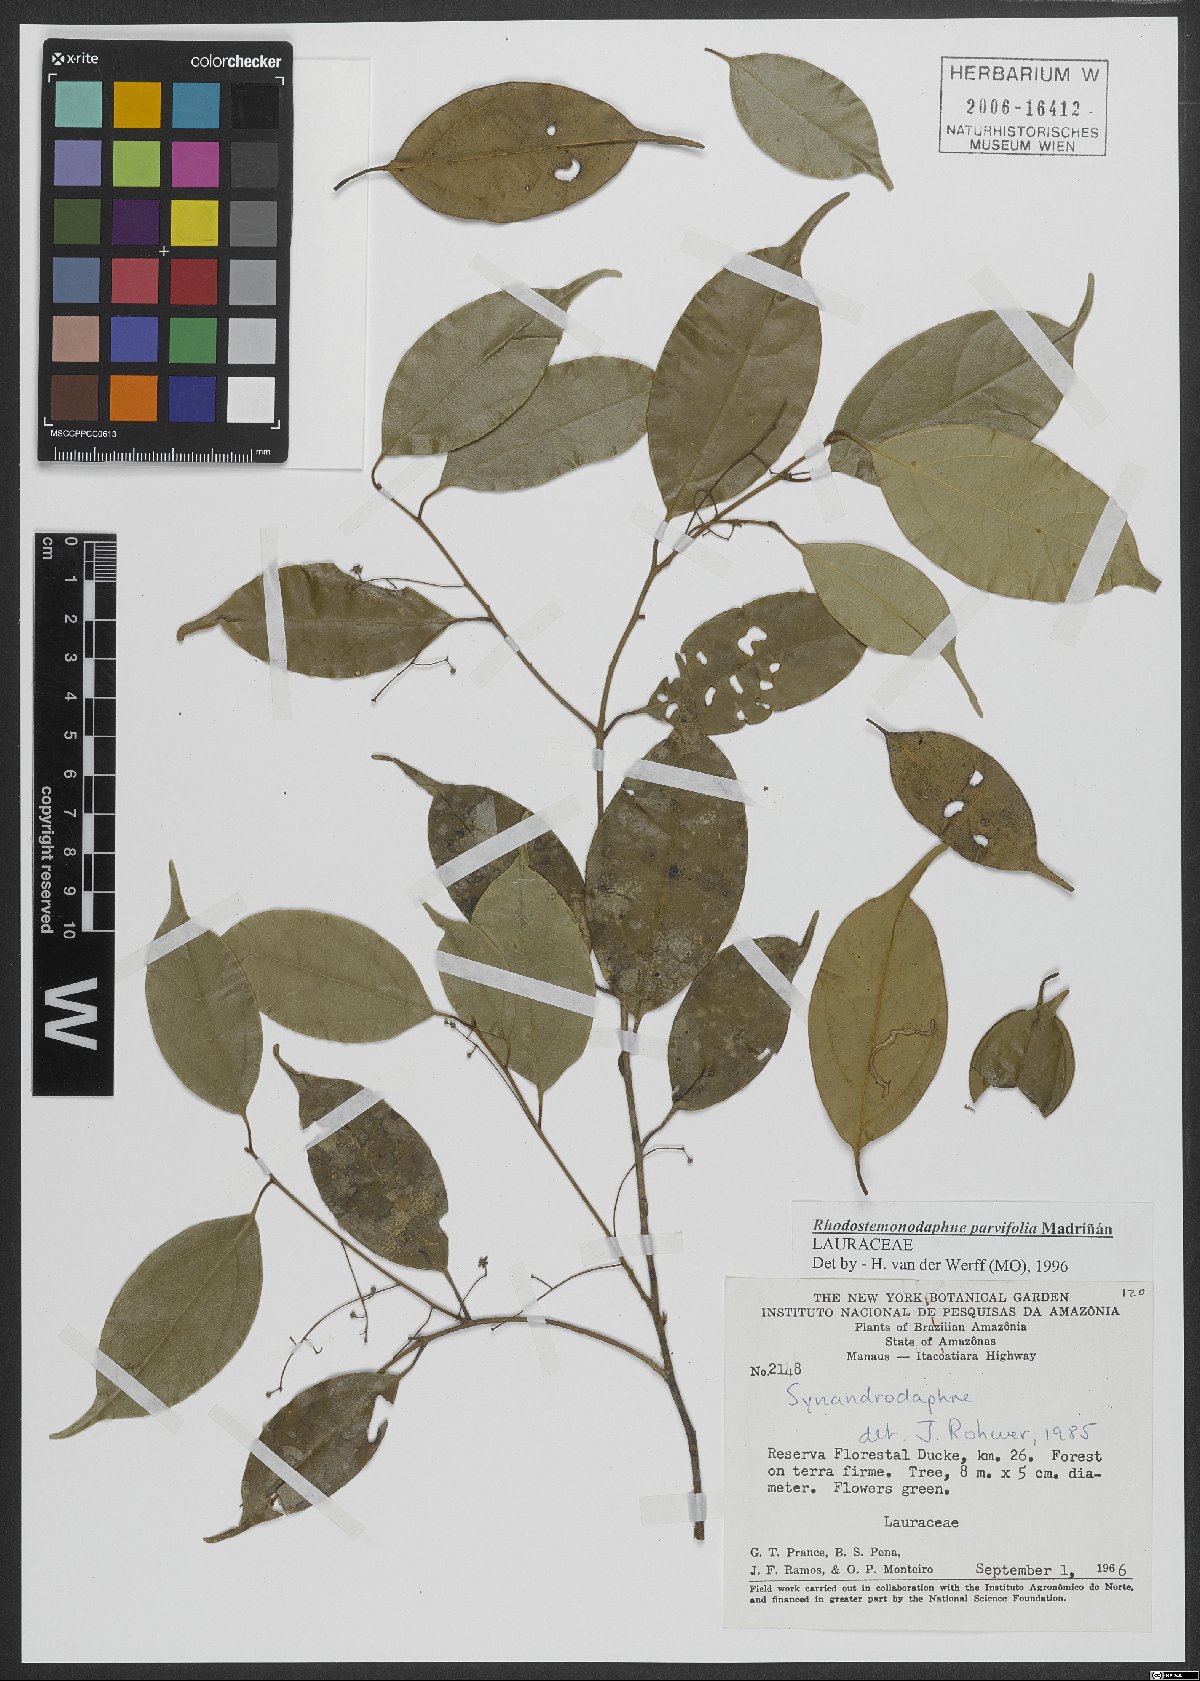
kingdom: Plantae
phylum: Tracheophyta
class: Magnoliopsida
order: Laurales
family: Lauraceae
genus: Rhodostemonodaphne
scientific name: Rhodostemonodaphne parvifolia
